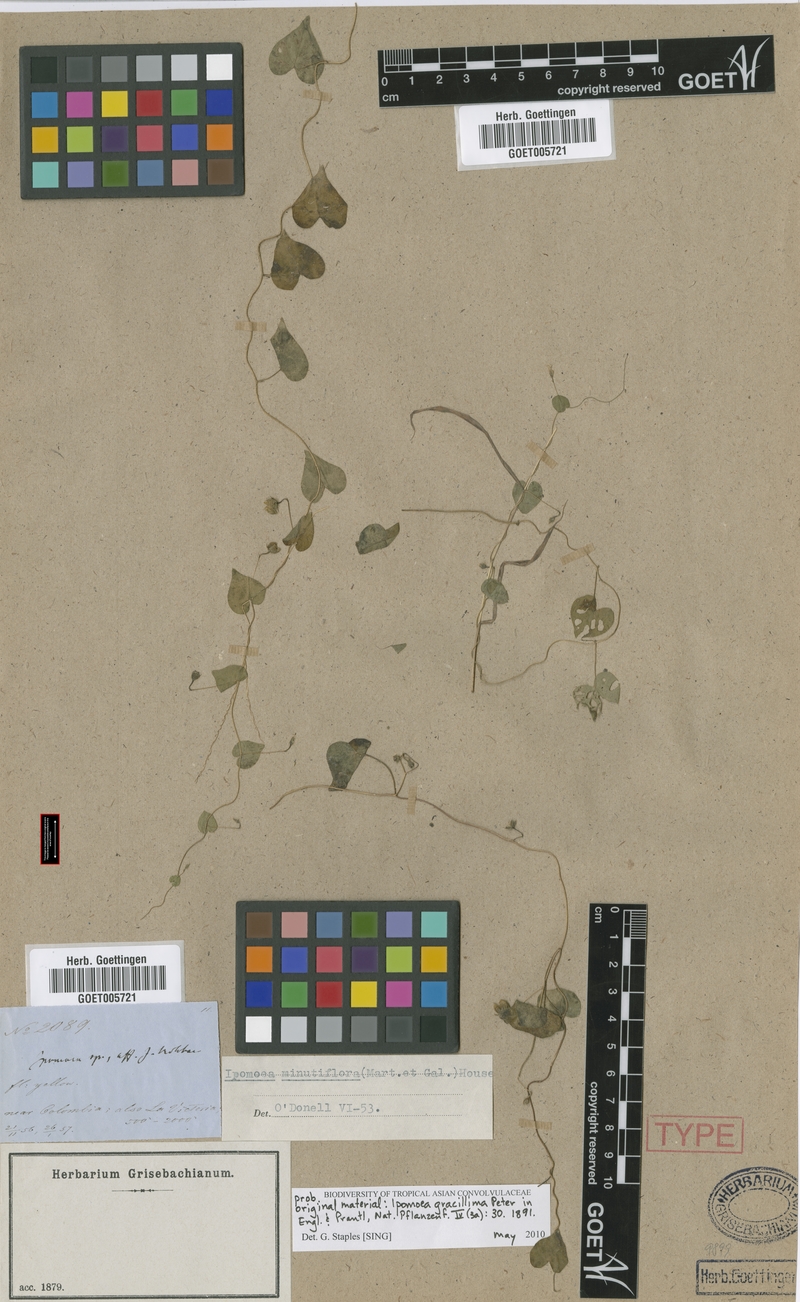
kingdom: Plantae
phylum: Tracheophyta
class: Magnoliopsida
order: Solanales
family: Convolvulaceae
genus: Ipomoea
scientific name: Ipomoea minutiflora
